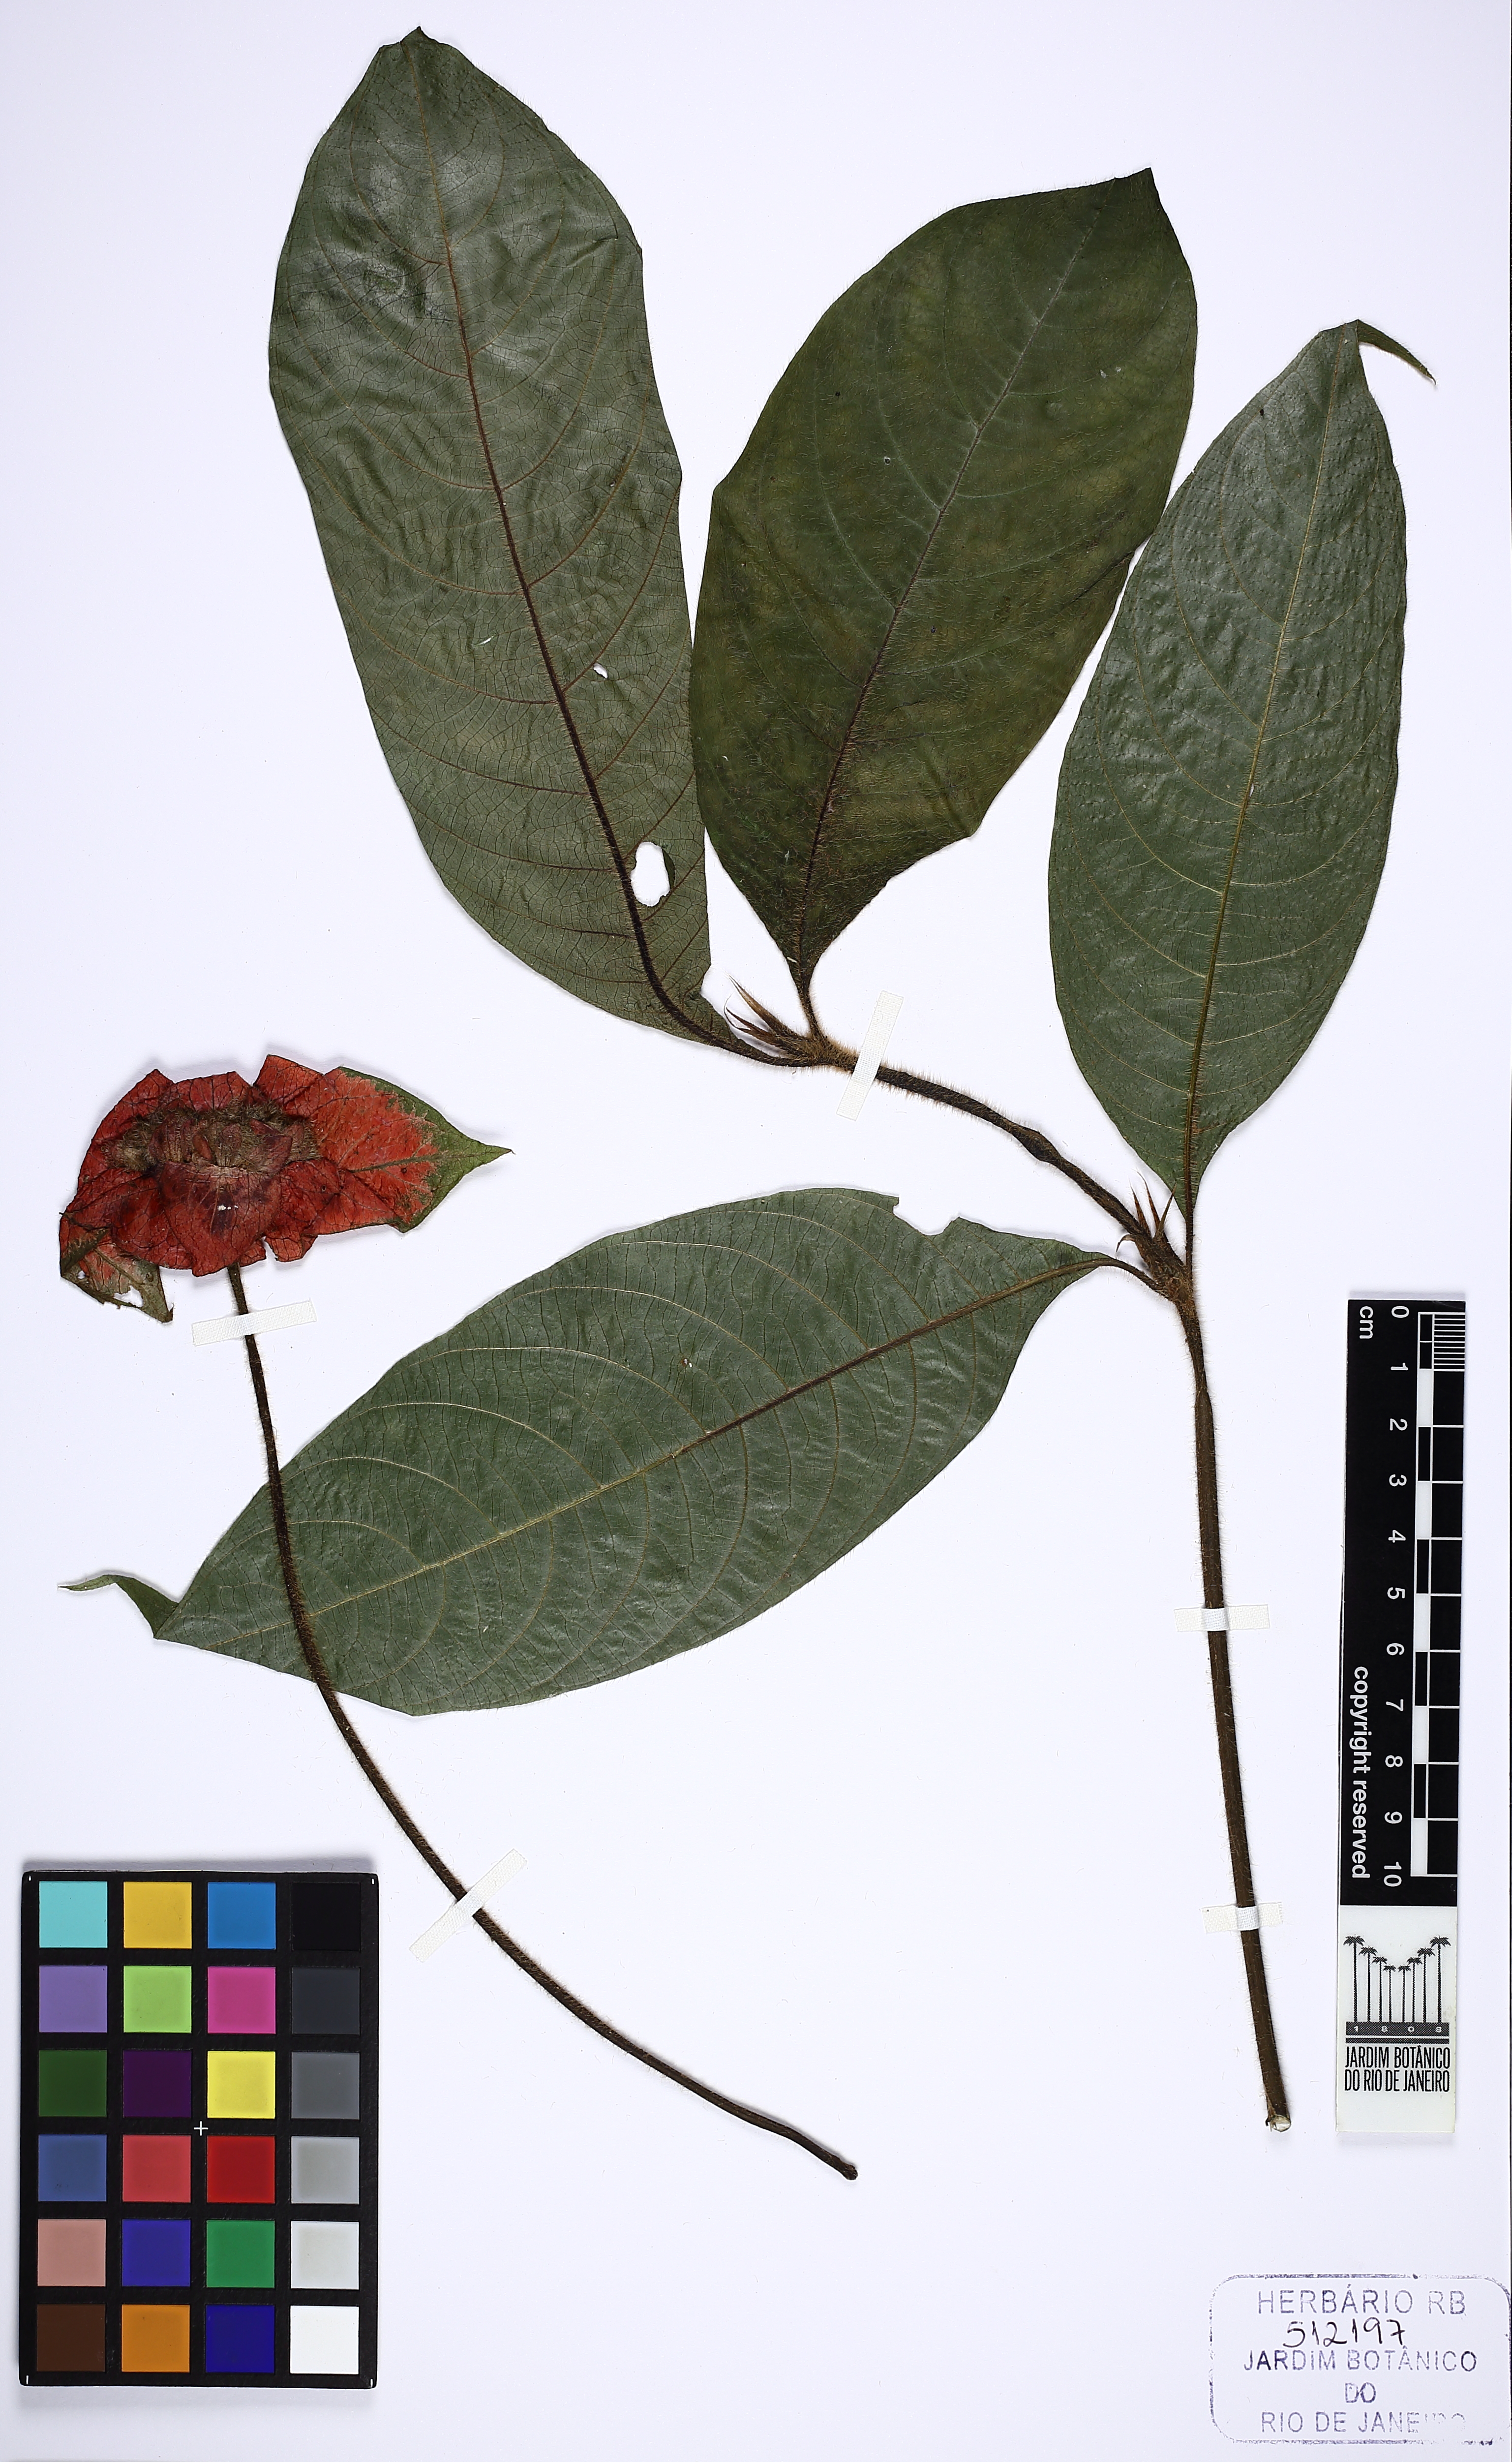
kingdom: Plantae
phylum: Tracheophyta
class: Magnoliopsida
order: Gentianales
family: Rubiaceae
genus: Palicourea
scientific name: Palicourea tomentosa
